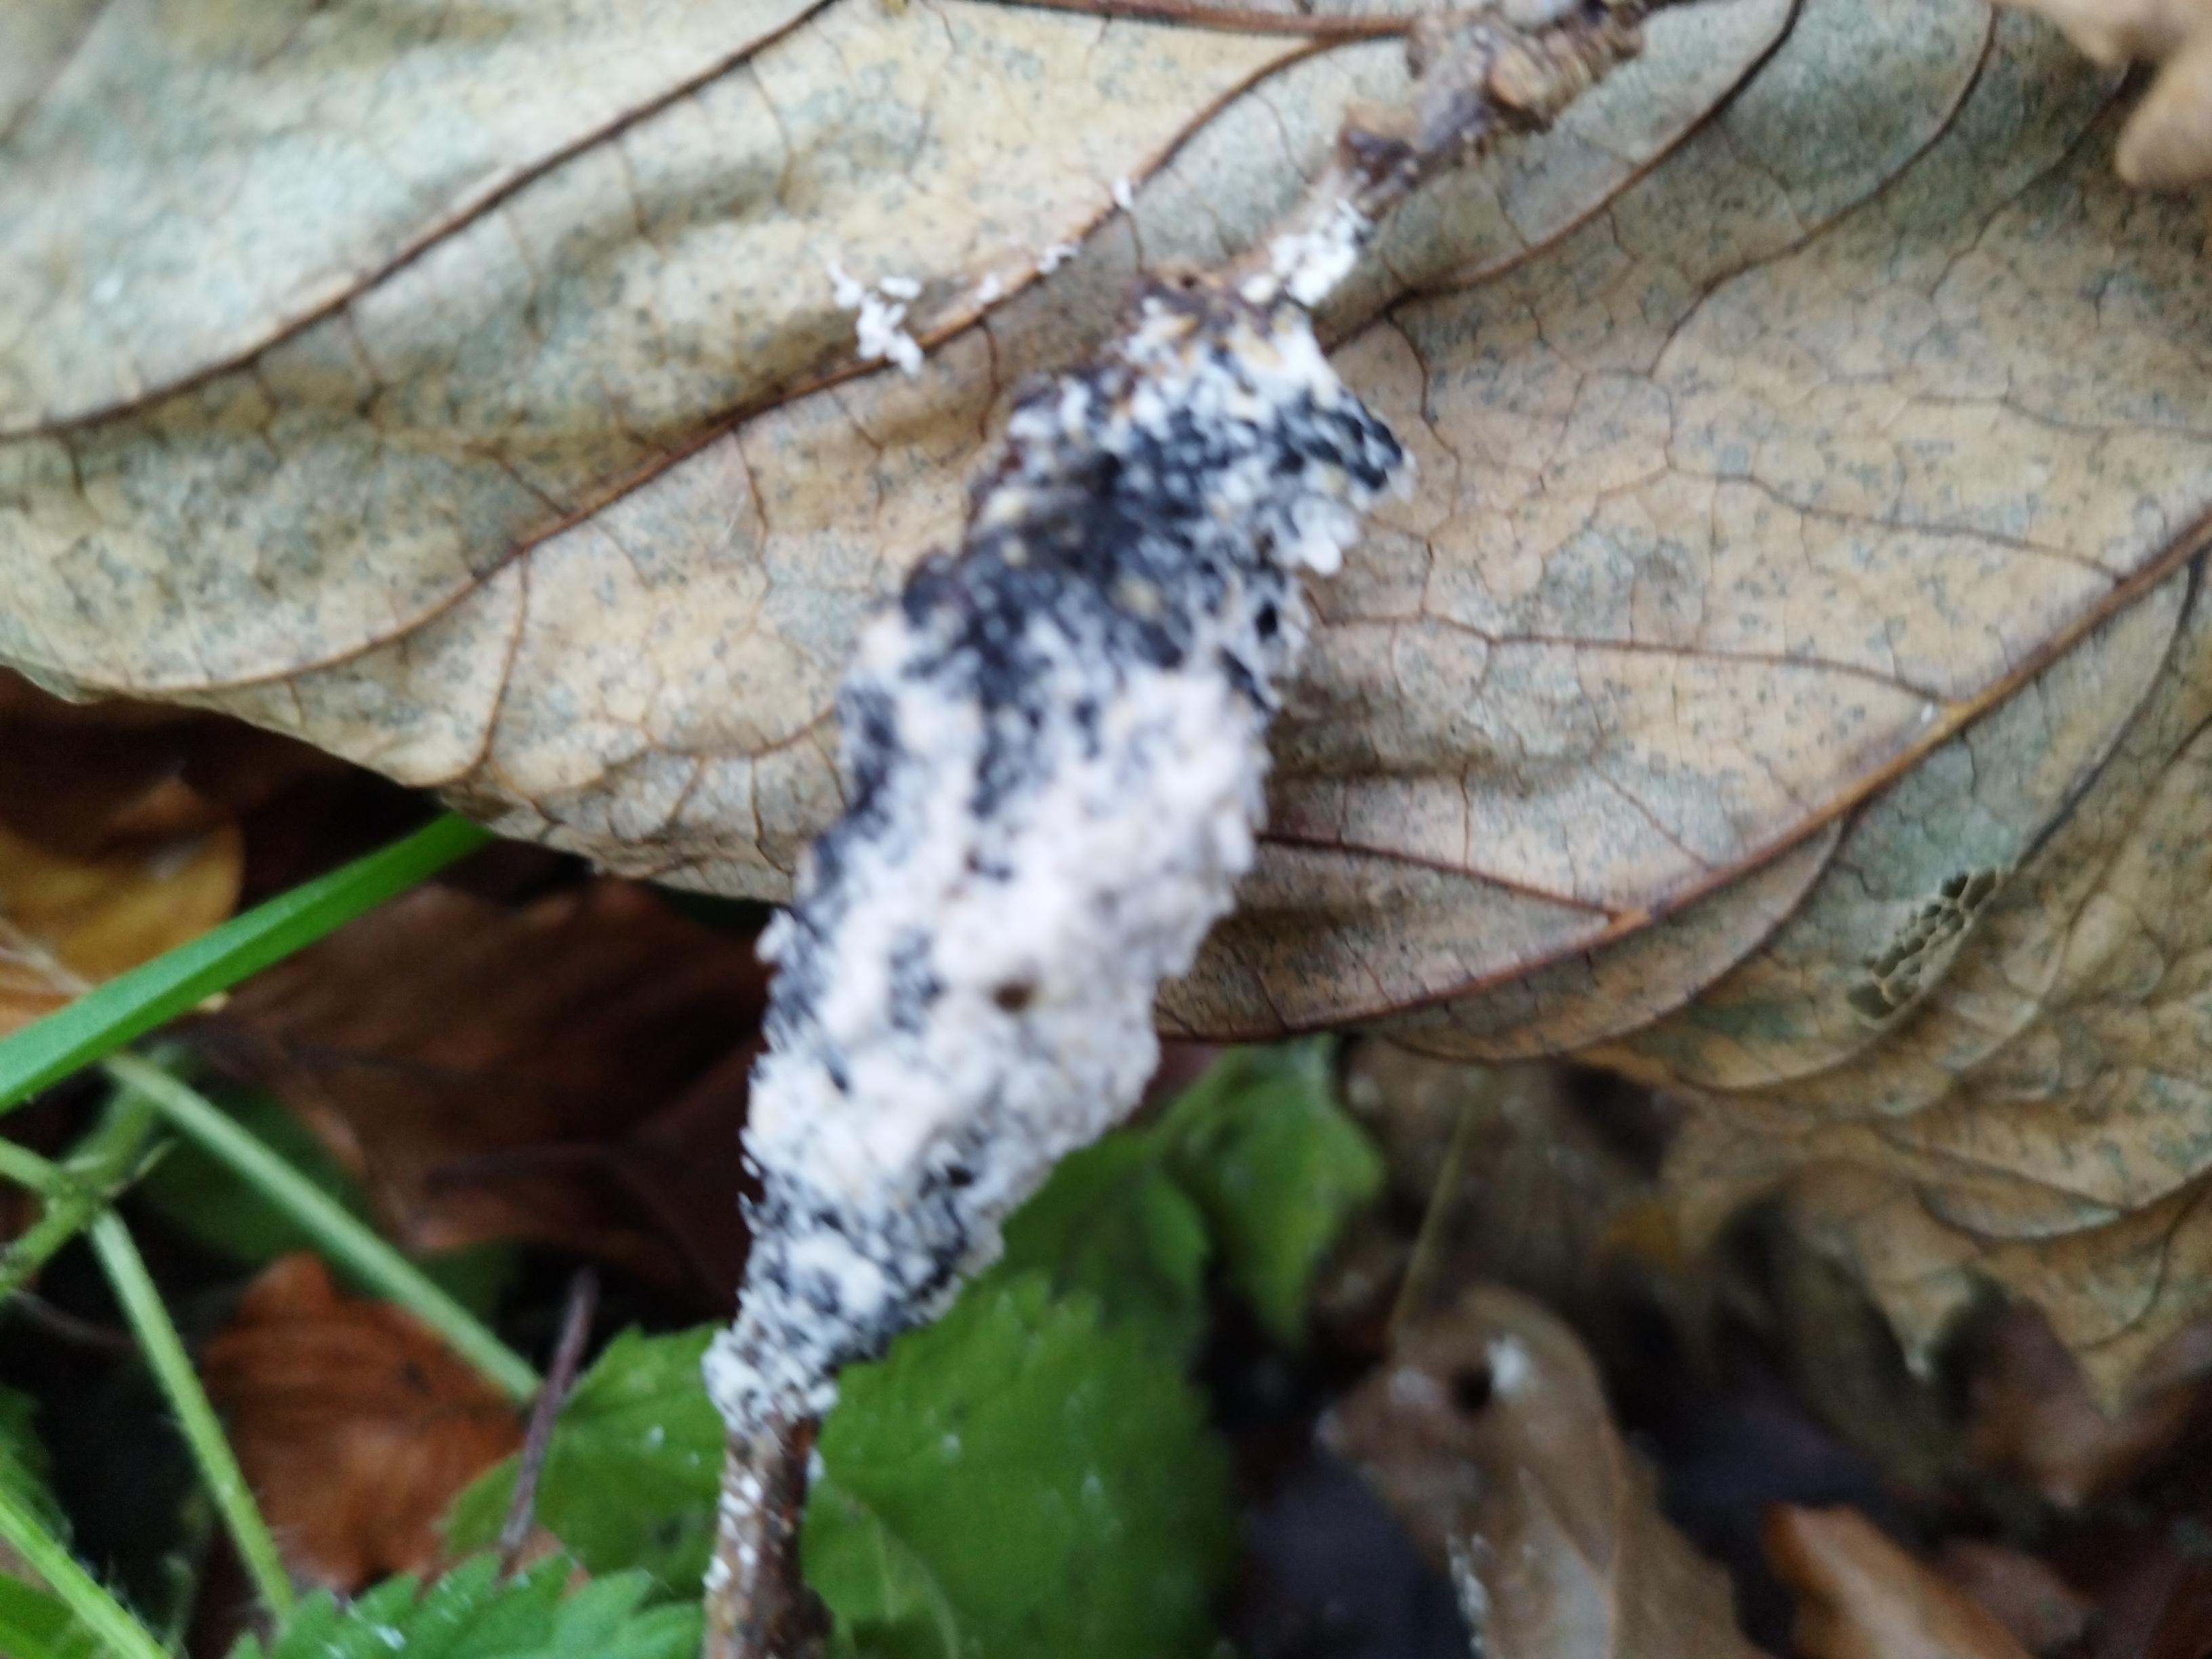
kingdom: Protozoa
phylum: Mycetozoa
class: Myxomycetes
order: Physarales
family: Physaraceae
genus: Didymium
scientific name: Didymium
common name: urteskum
